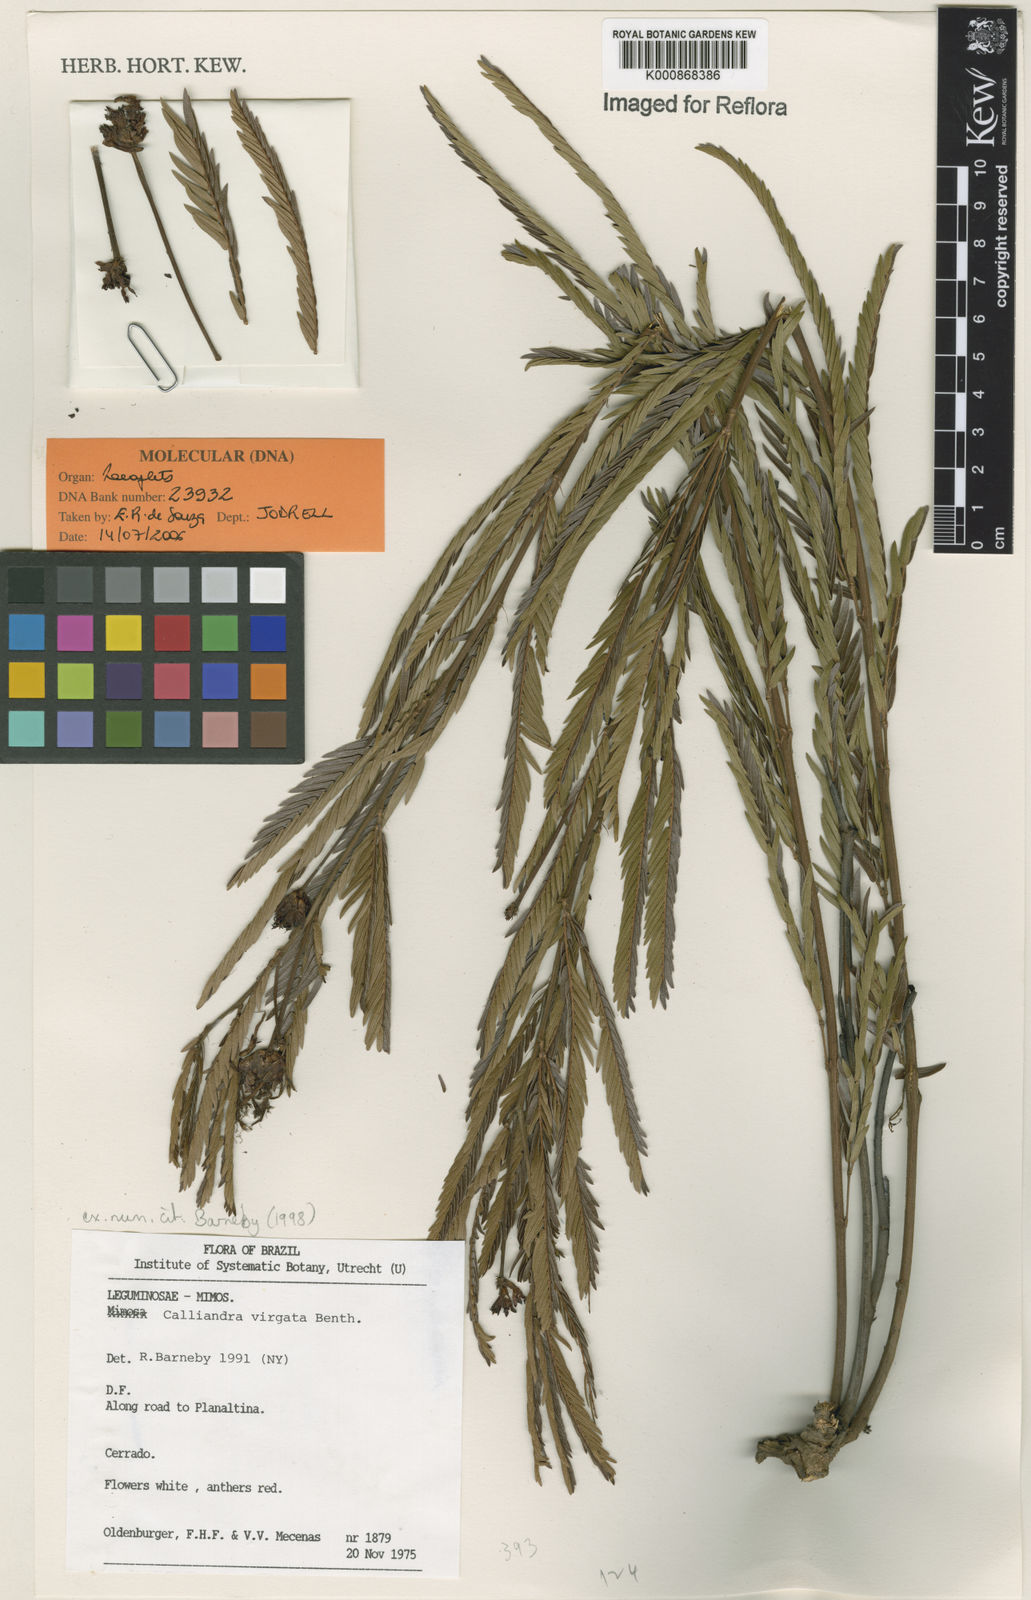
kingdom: Plantae
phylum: Tracheophyta
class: Magnoliopsida
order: Fabales
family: Fabaceae
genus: Calliandra
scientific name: Calliandra virgata
